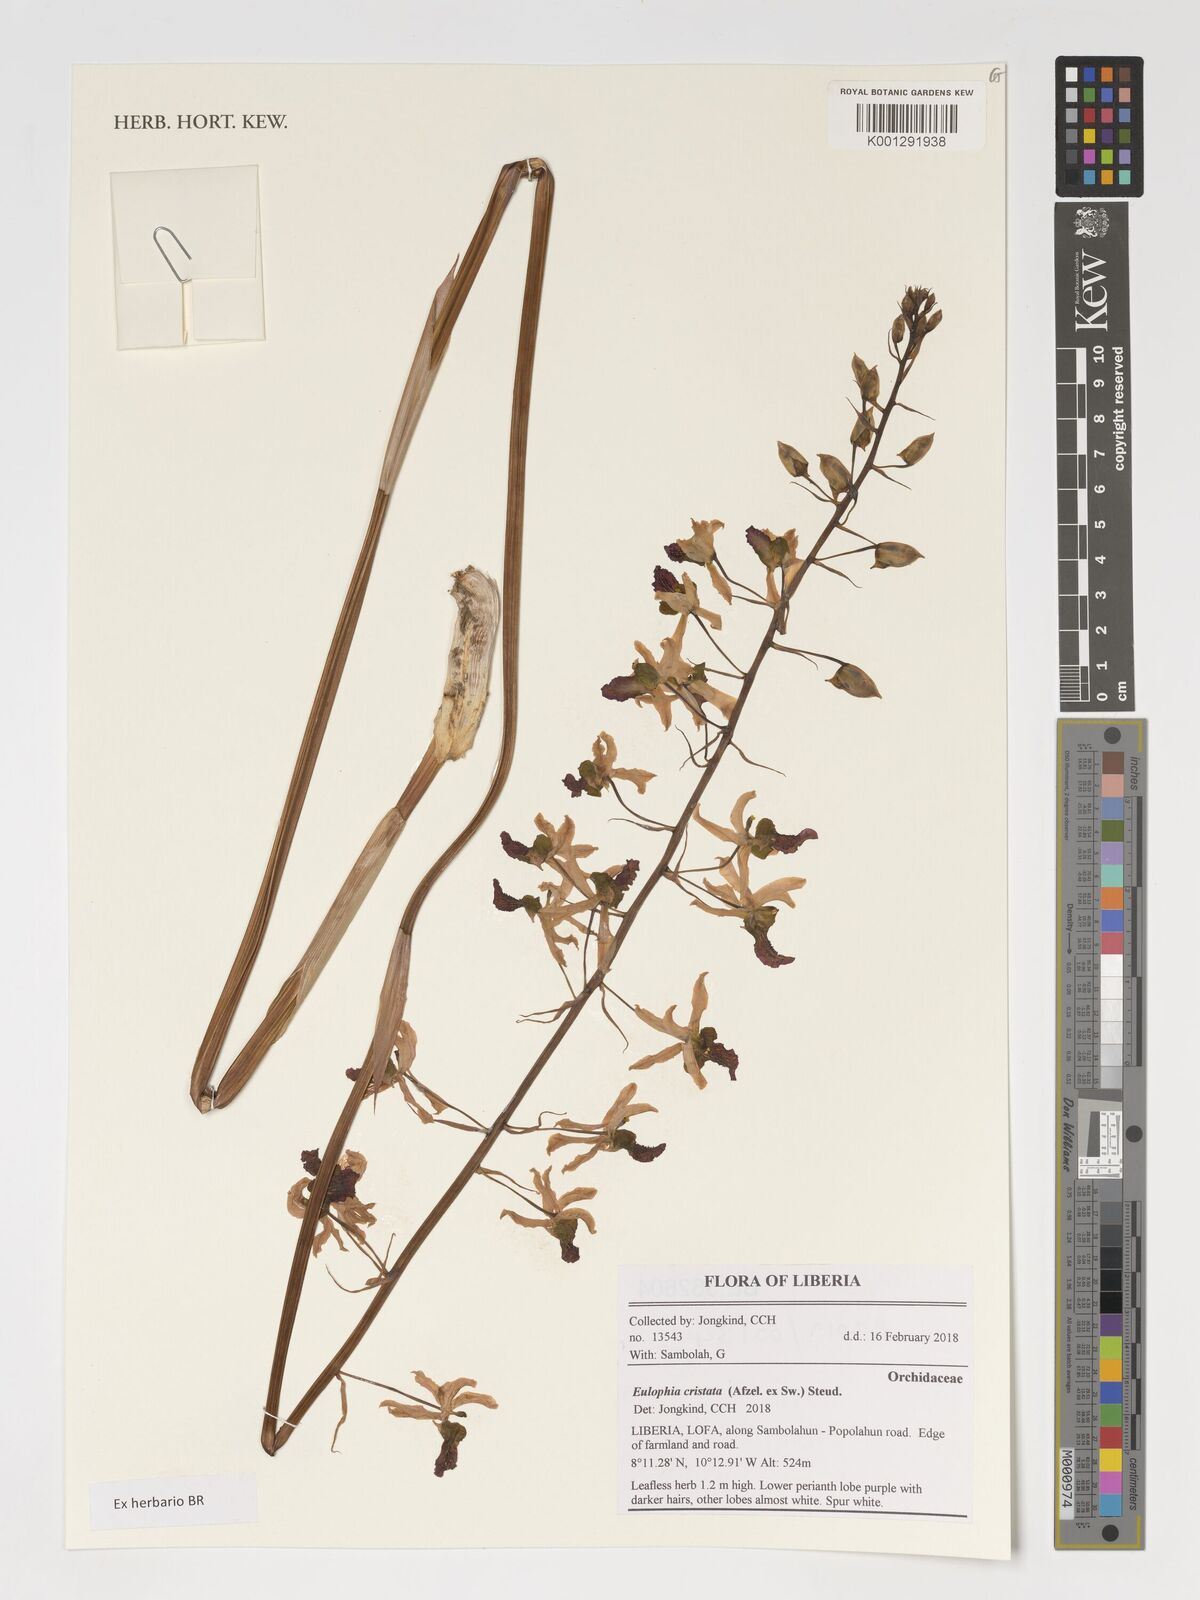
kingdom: Plantae
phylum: Tracheophyta
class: Liliopsida
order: Asparagales
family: Orchidaceae
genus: Eulophia
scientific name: Eulophia cristata
